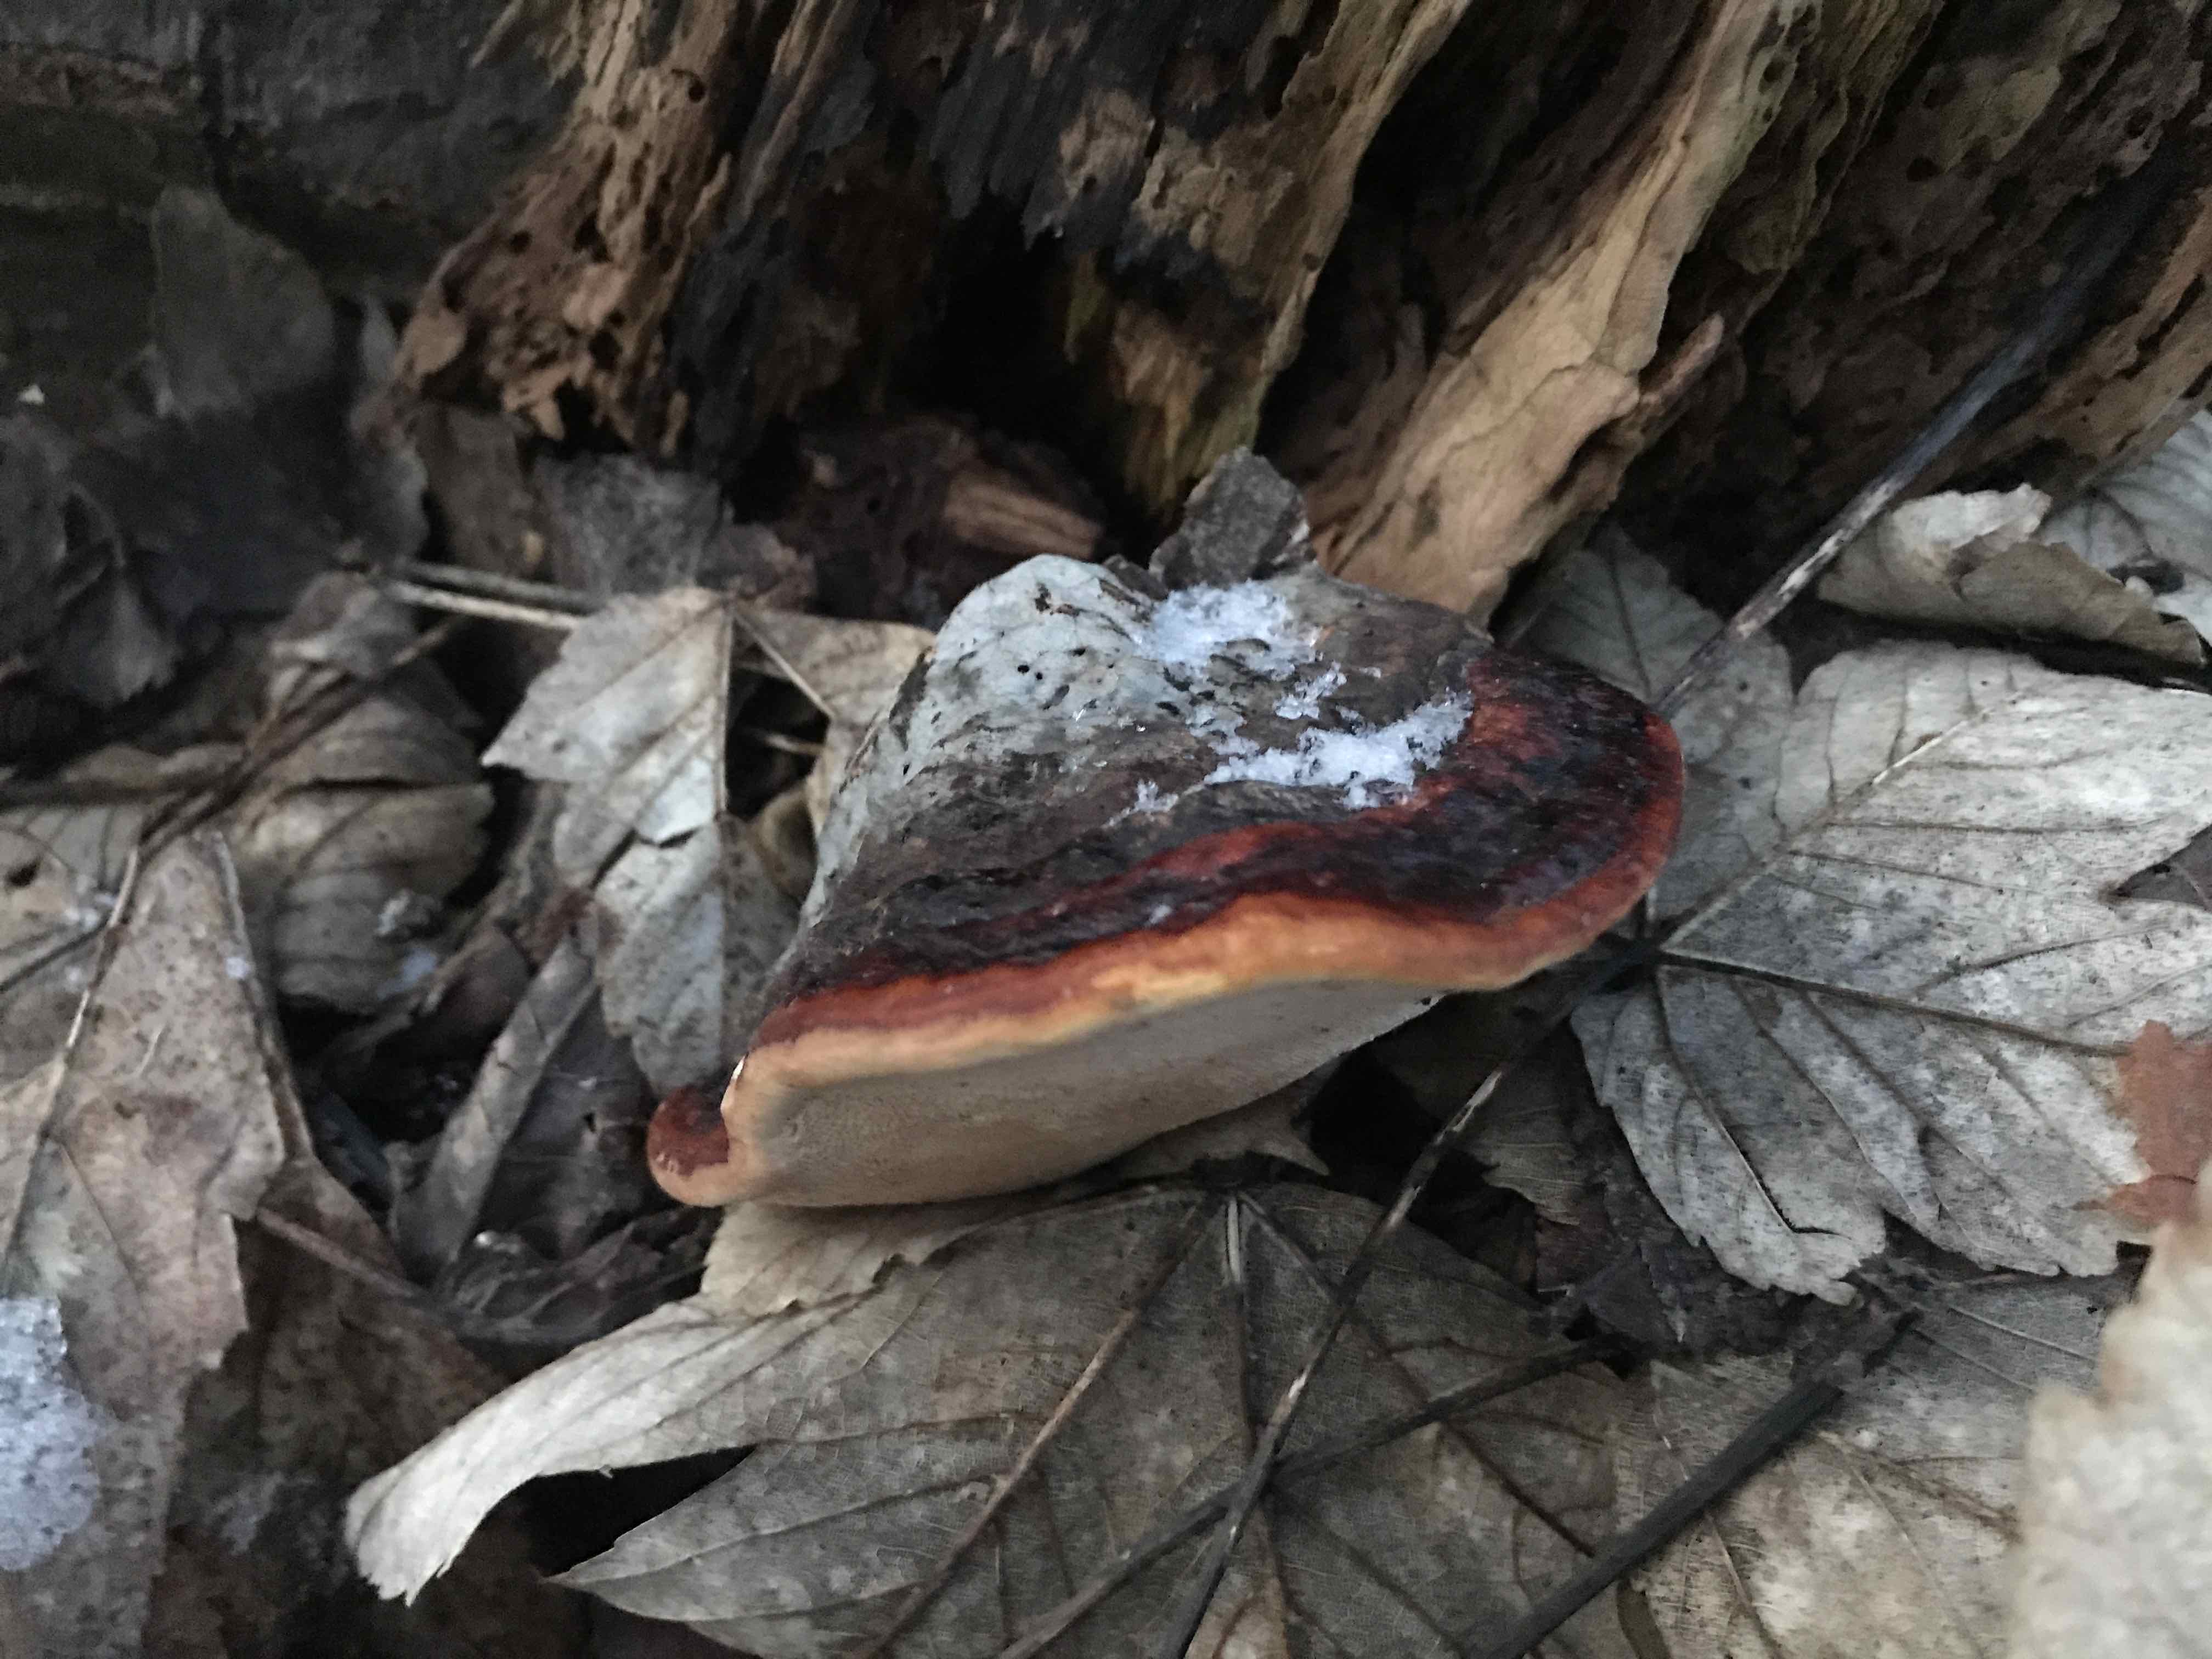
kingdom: Fungi
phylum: Basidiomycota
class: Agaricomycetes
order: Polyporales
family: Fomitopsidaceae
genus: Fomitopsis
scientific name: Fomitopsis pinicola
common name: randbæltet hovporesvamp
